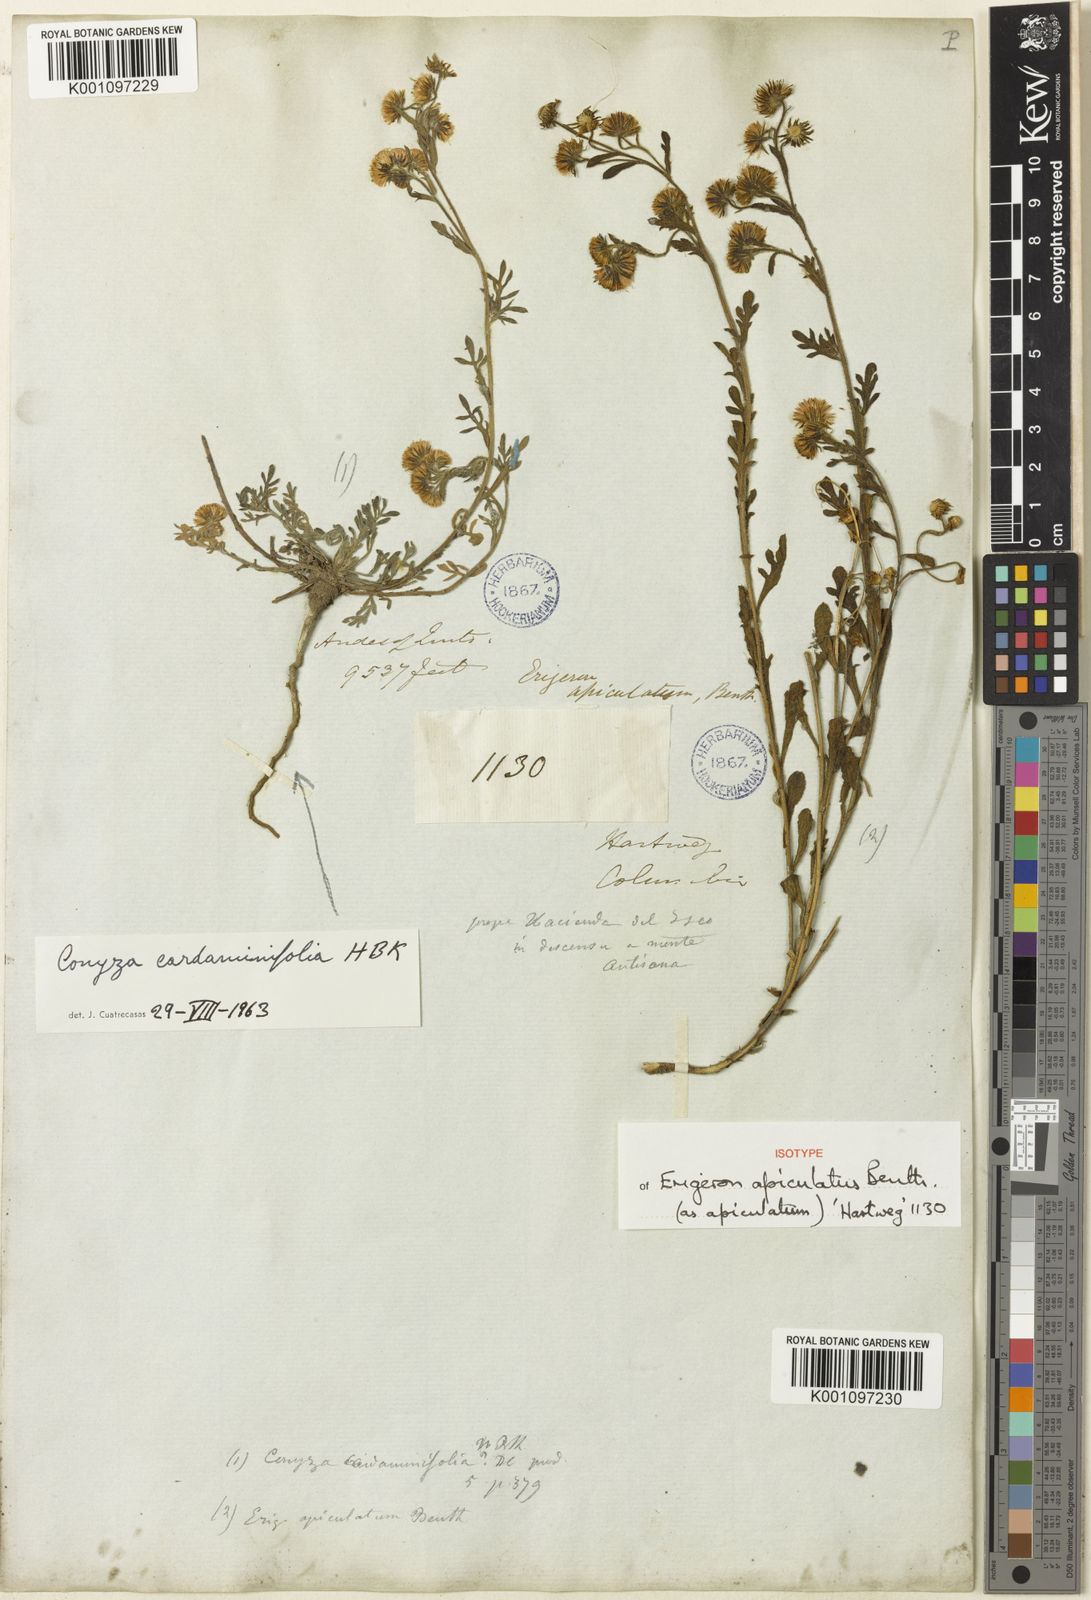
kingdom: Plantae
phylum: Tracheophyta
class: Magnoliopsida
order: Asterales
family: Asteraceae
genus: Erigeron
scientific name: Erigeron apiculatus
